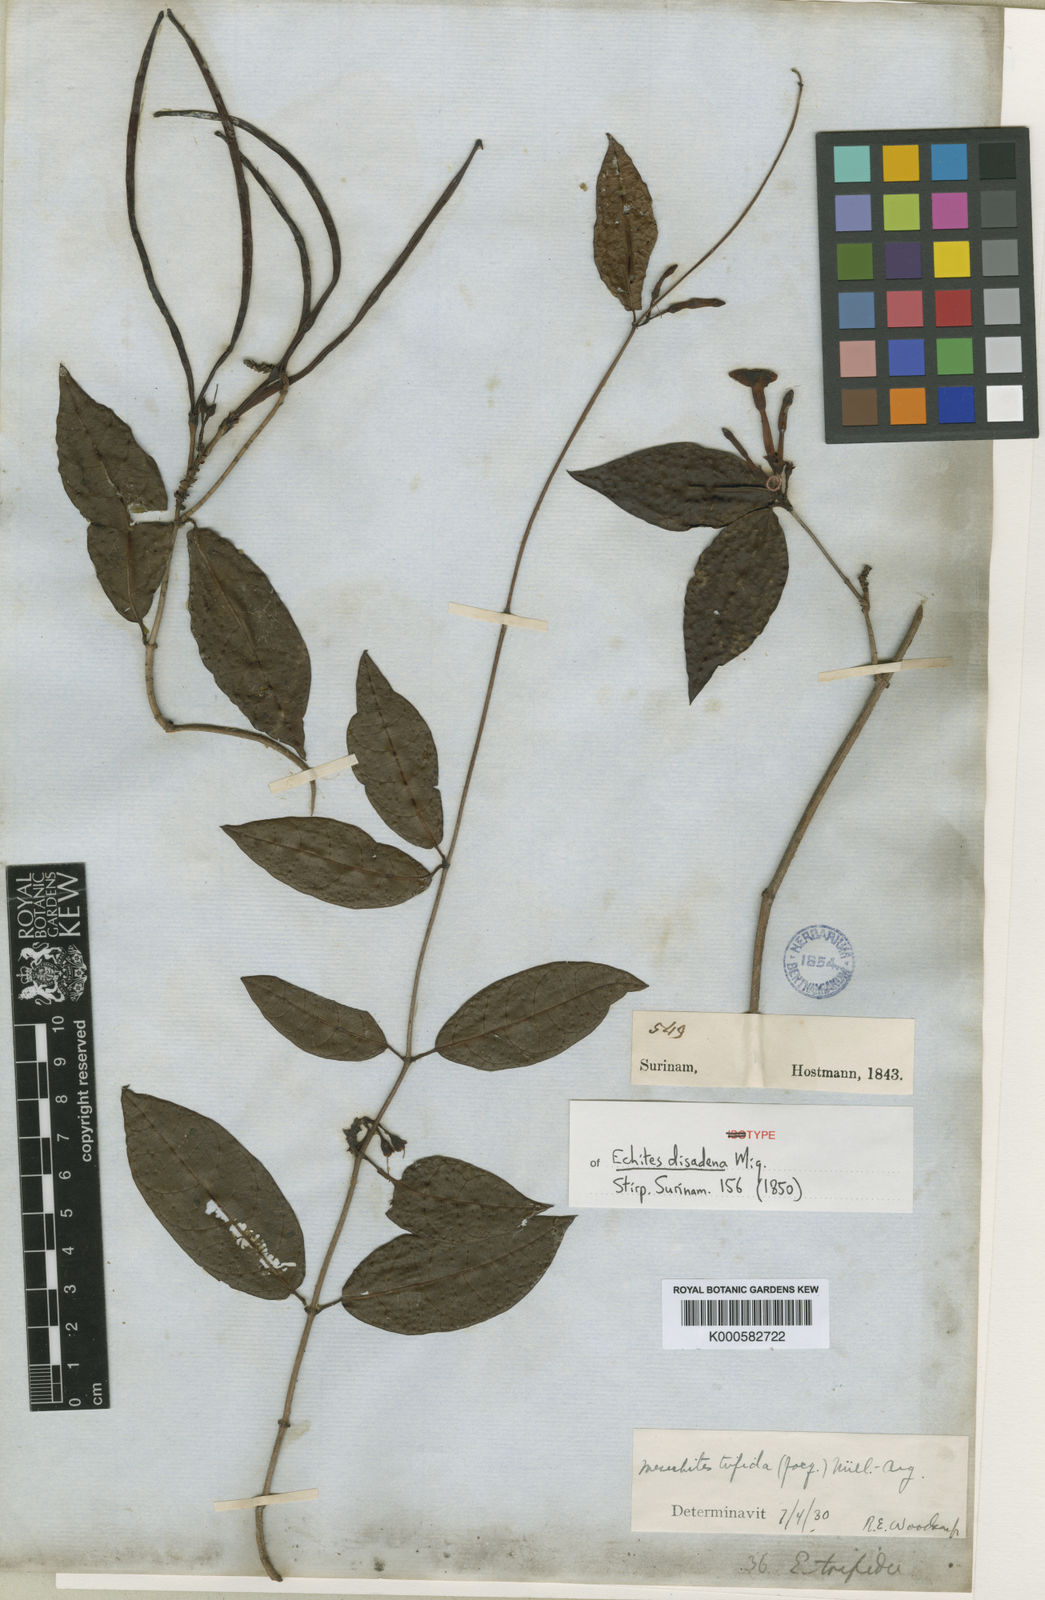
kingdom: Plantae
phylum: Tracheophyta
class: Magnoliopsida
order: Gentianales
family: Apocynaceae
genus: Mesechites
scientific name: Mesechites
